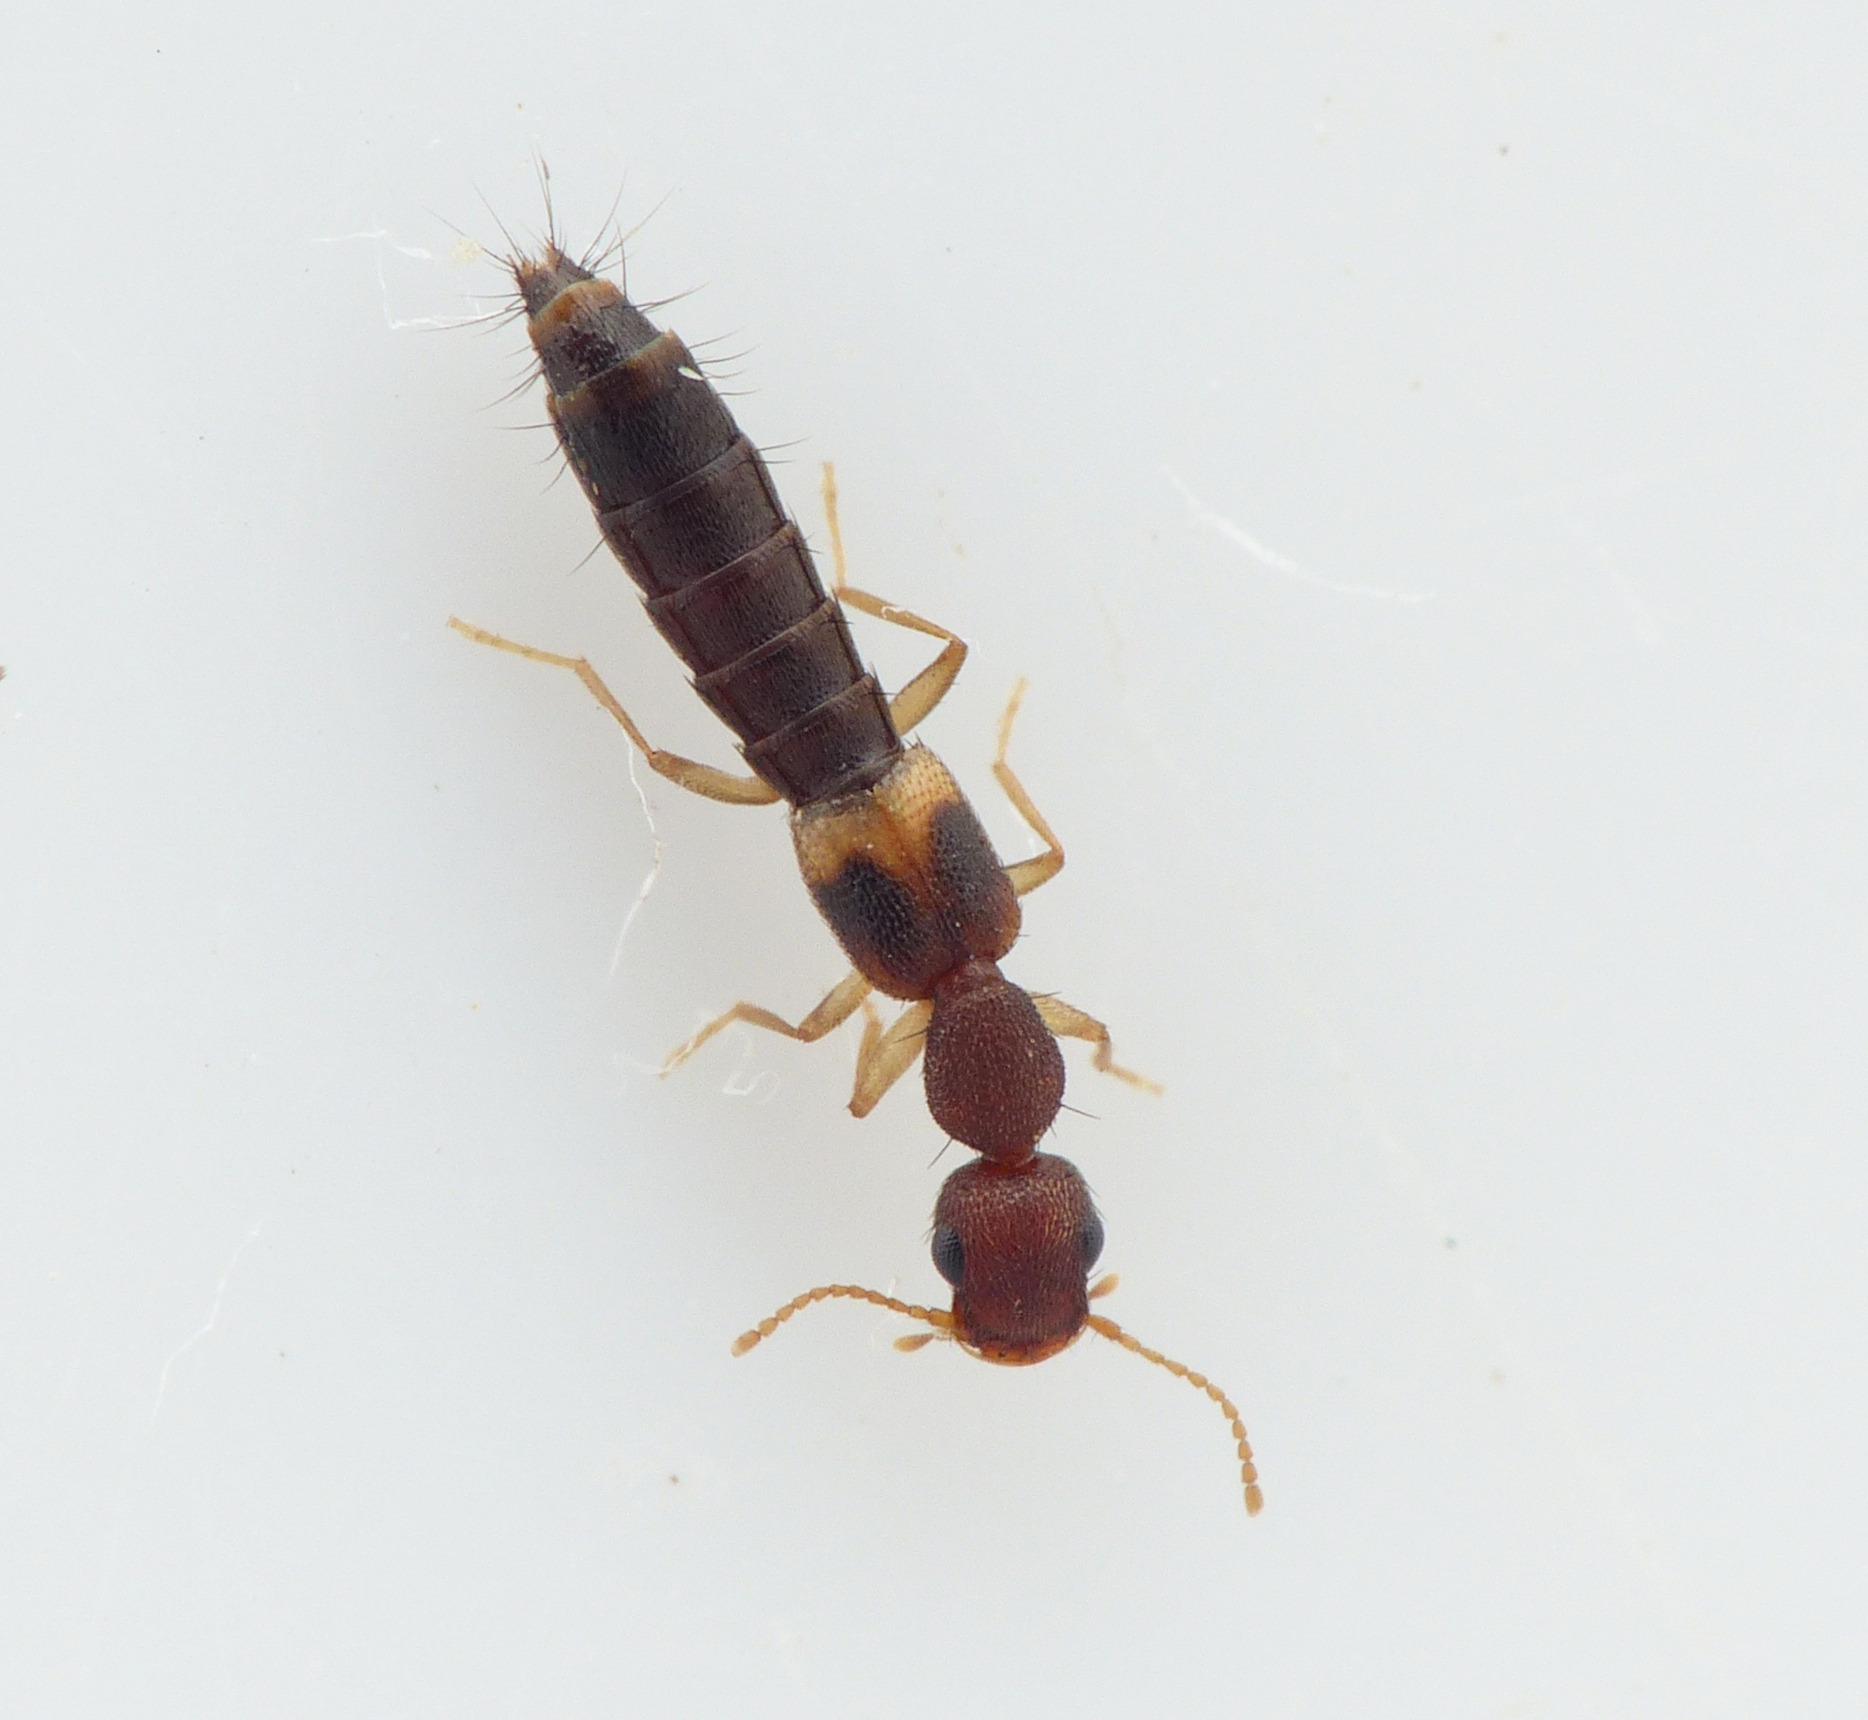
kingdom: Animalia
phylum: Arthropoda
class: Insecta
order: Coleoptera
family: Staphylinidae
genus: Astenus
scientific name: Astenus pulchellus
